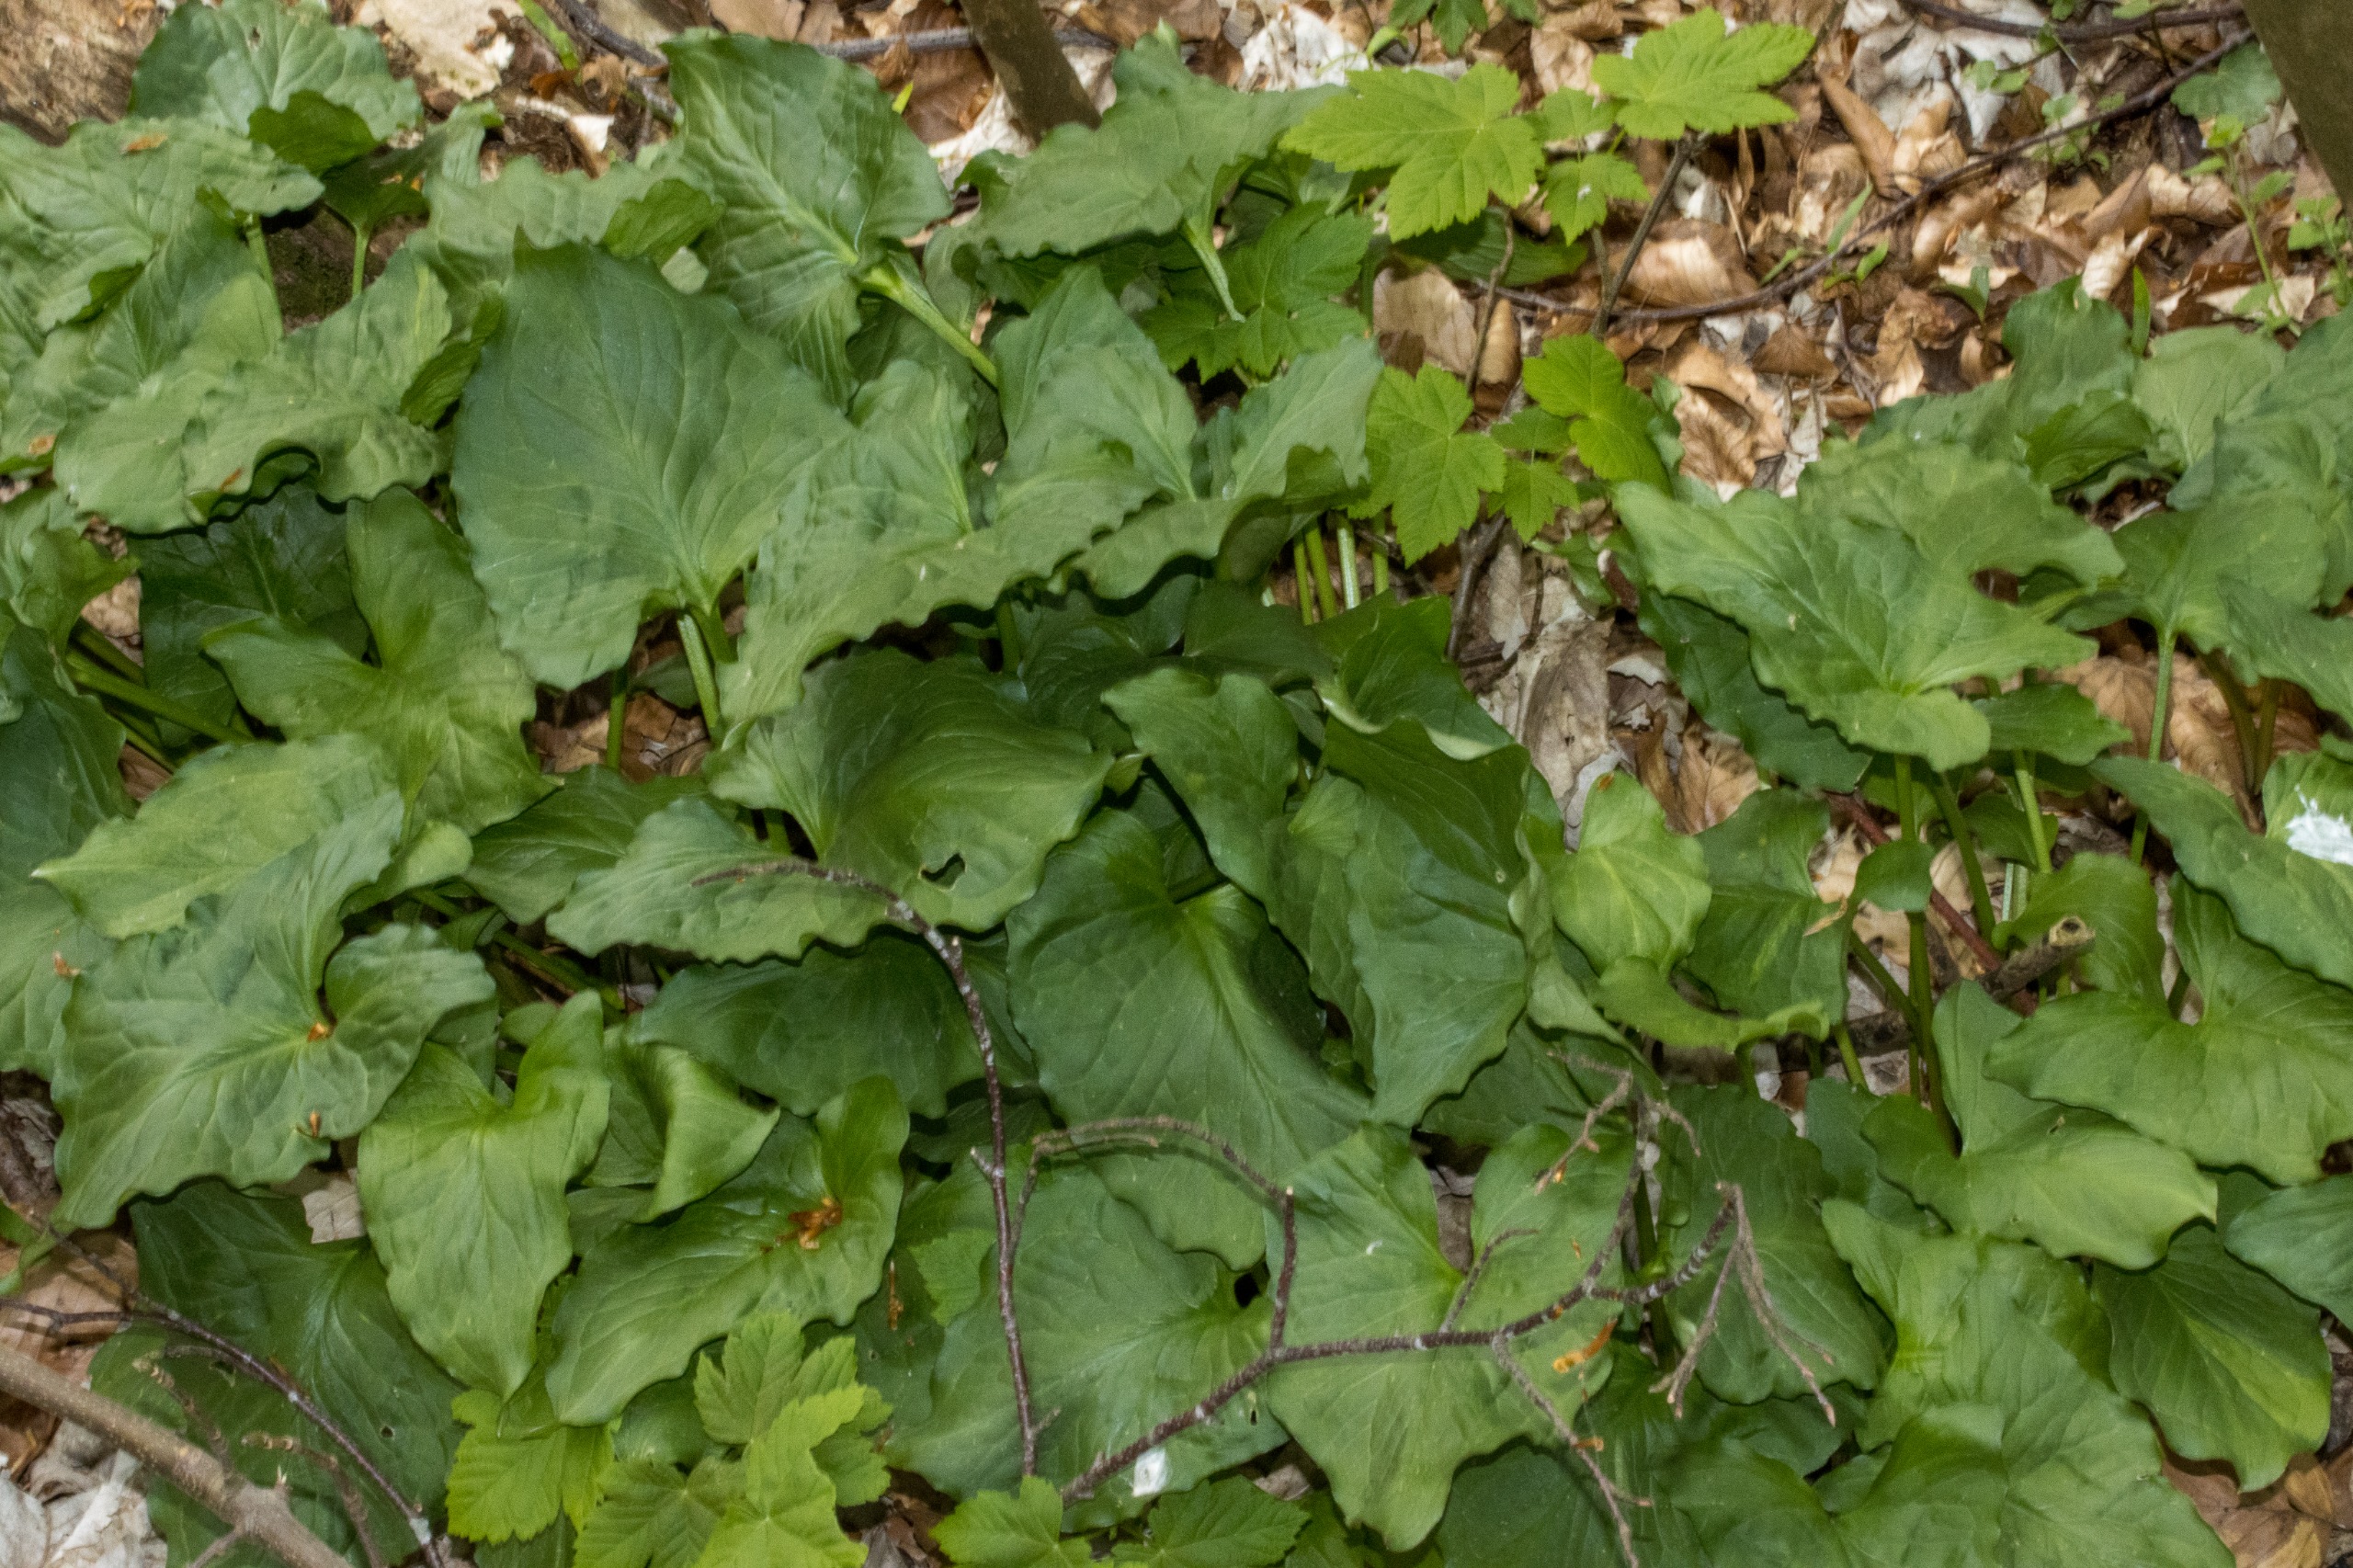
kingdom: Plantae
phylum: Tracheophyta
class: Liliopsida
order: Alismatales
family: Araceae
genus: Arum
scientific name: Arum cylindraceum
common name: Dansk arum
